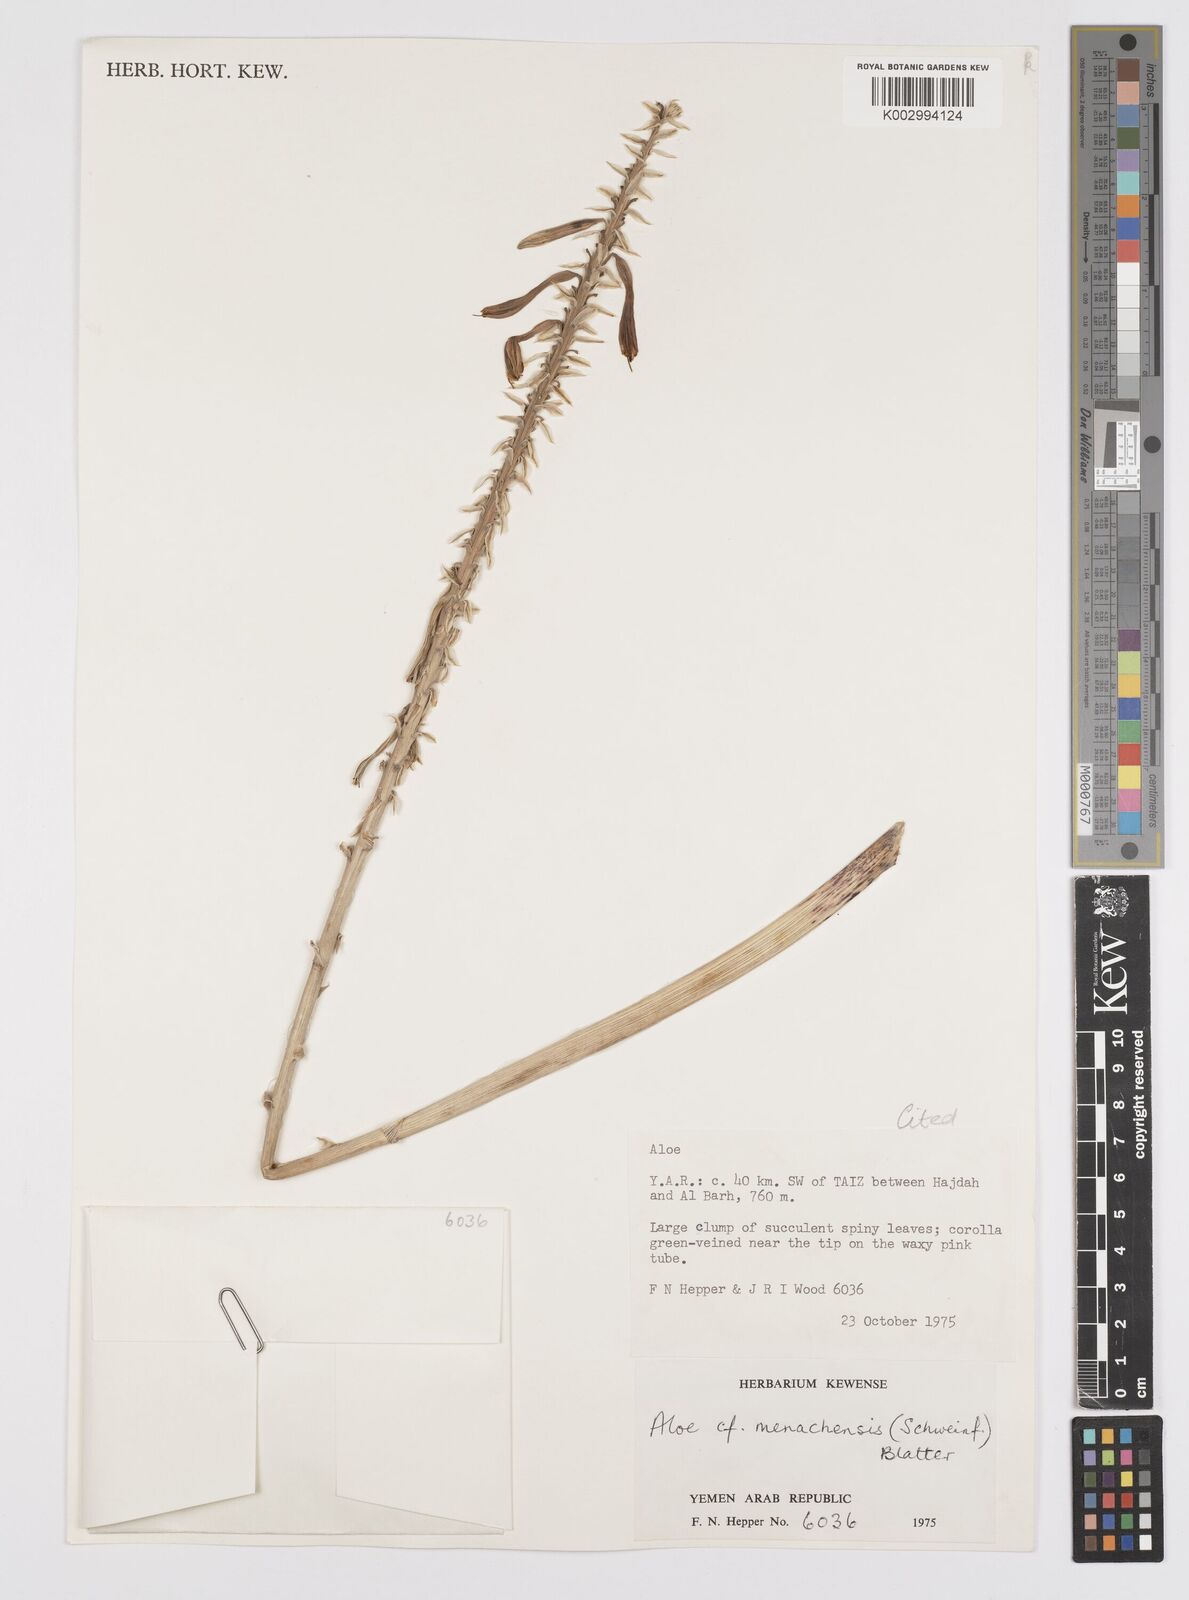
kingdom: Plantae
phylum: Tracheophyta
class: Liliopsida
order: Asparagales
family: Asphodelaceae
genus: Aloe
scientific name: Aloe niebuhriana
